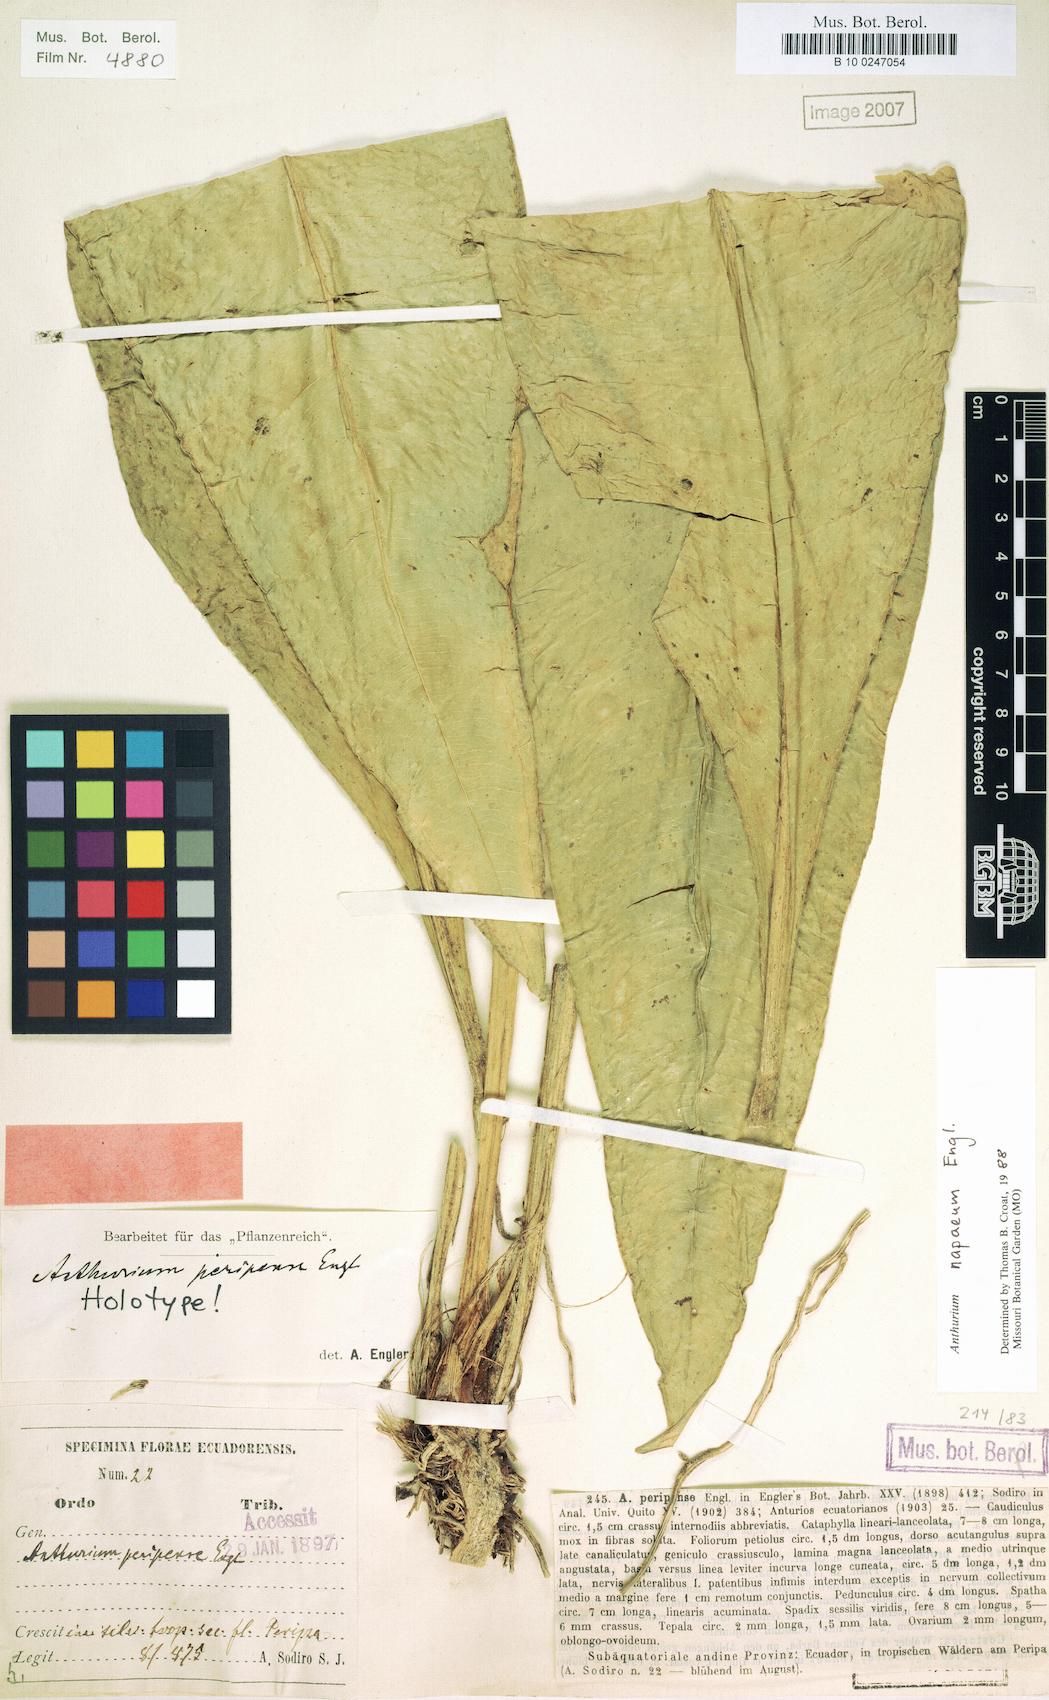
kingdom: Plantae
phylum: Tracheophyta
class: Liliopsida
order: Alismatales
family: Araceae
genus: Anthurium
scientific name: Anthurium napaeum
